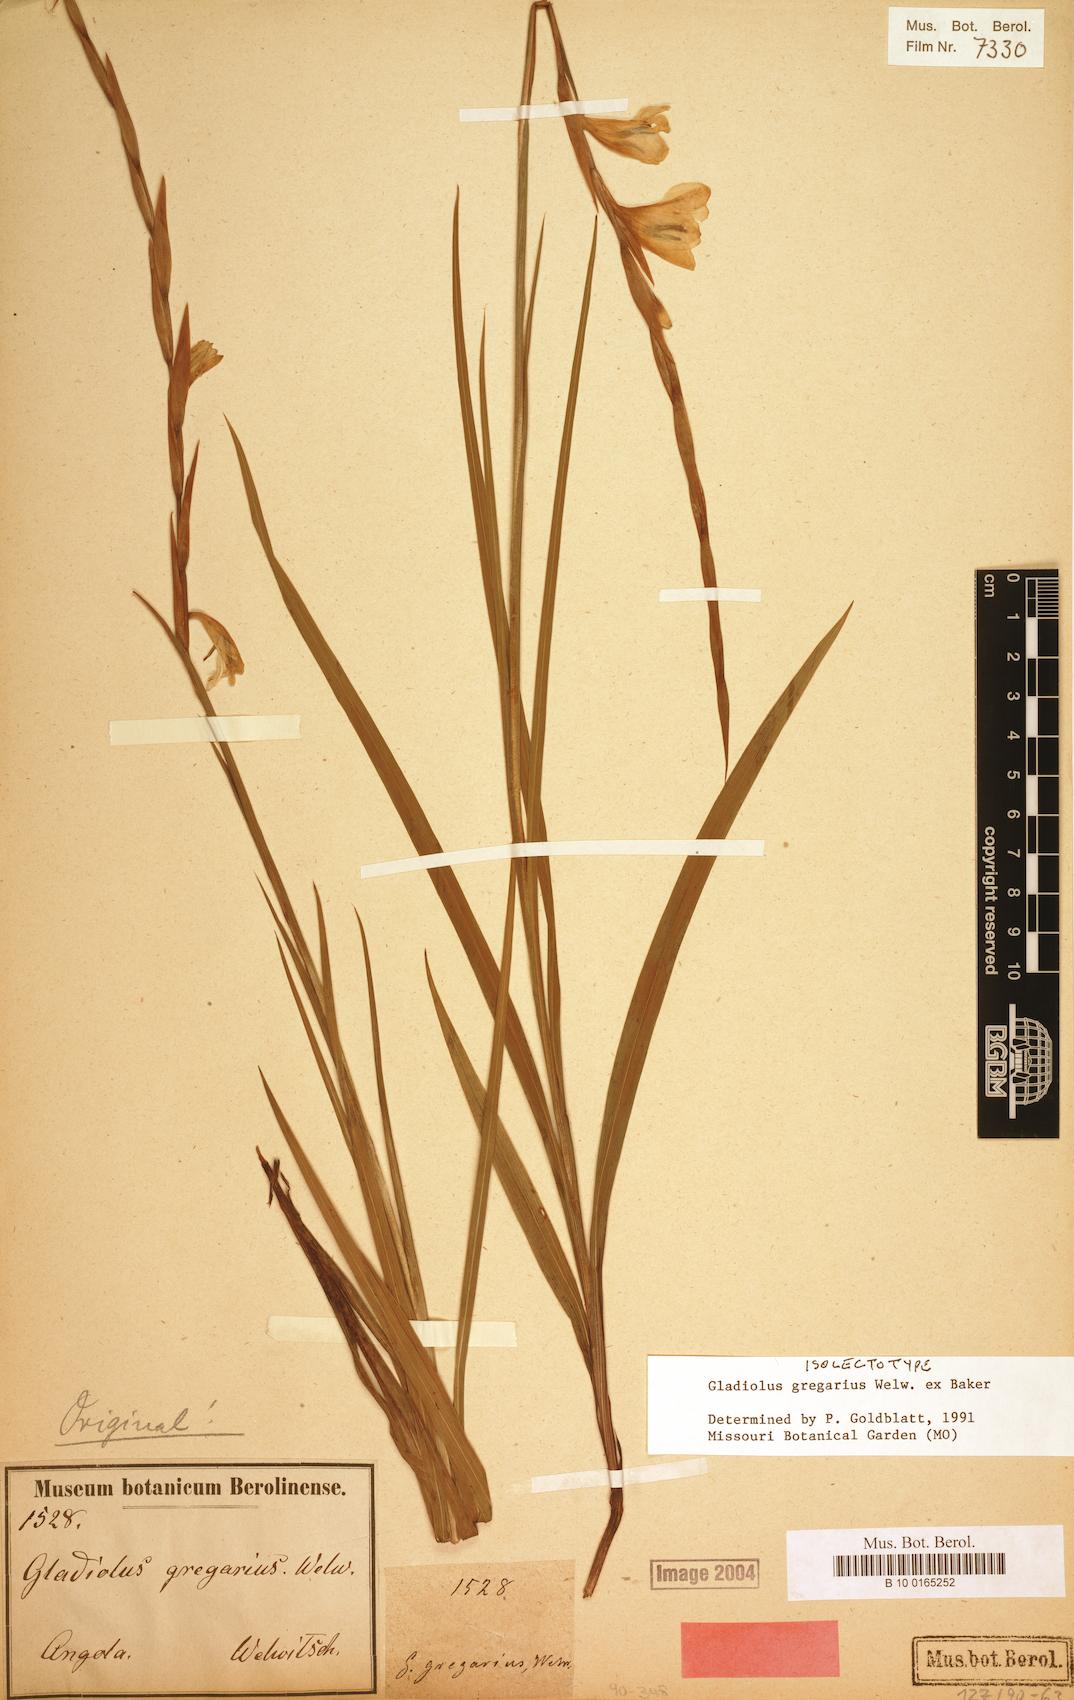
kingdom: Plantae
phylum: Tracheophyta
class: Liliopsida
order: Asparagales
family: Iridaceae
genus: Gladiolus
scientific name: Gladiolus gregarius
